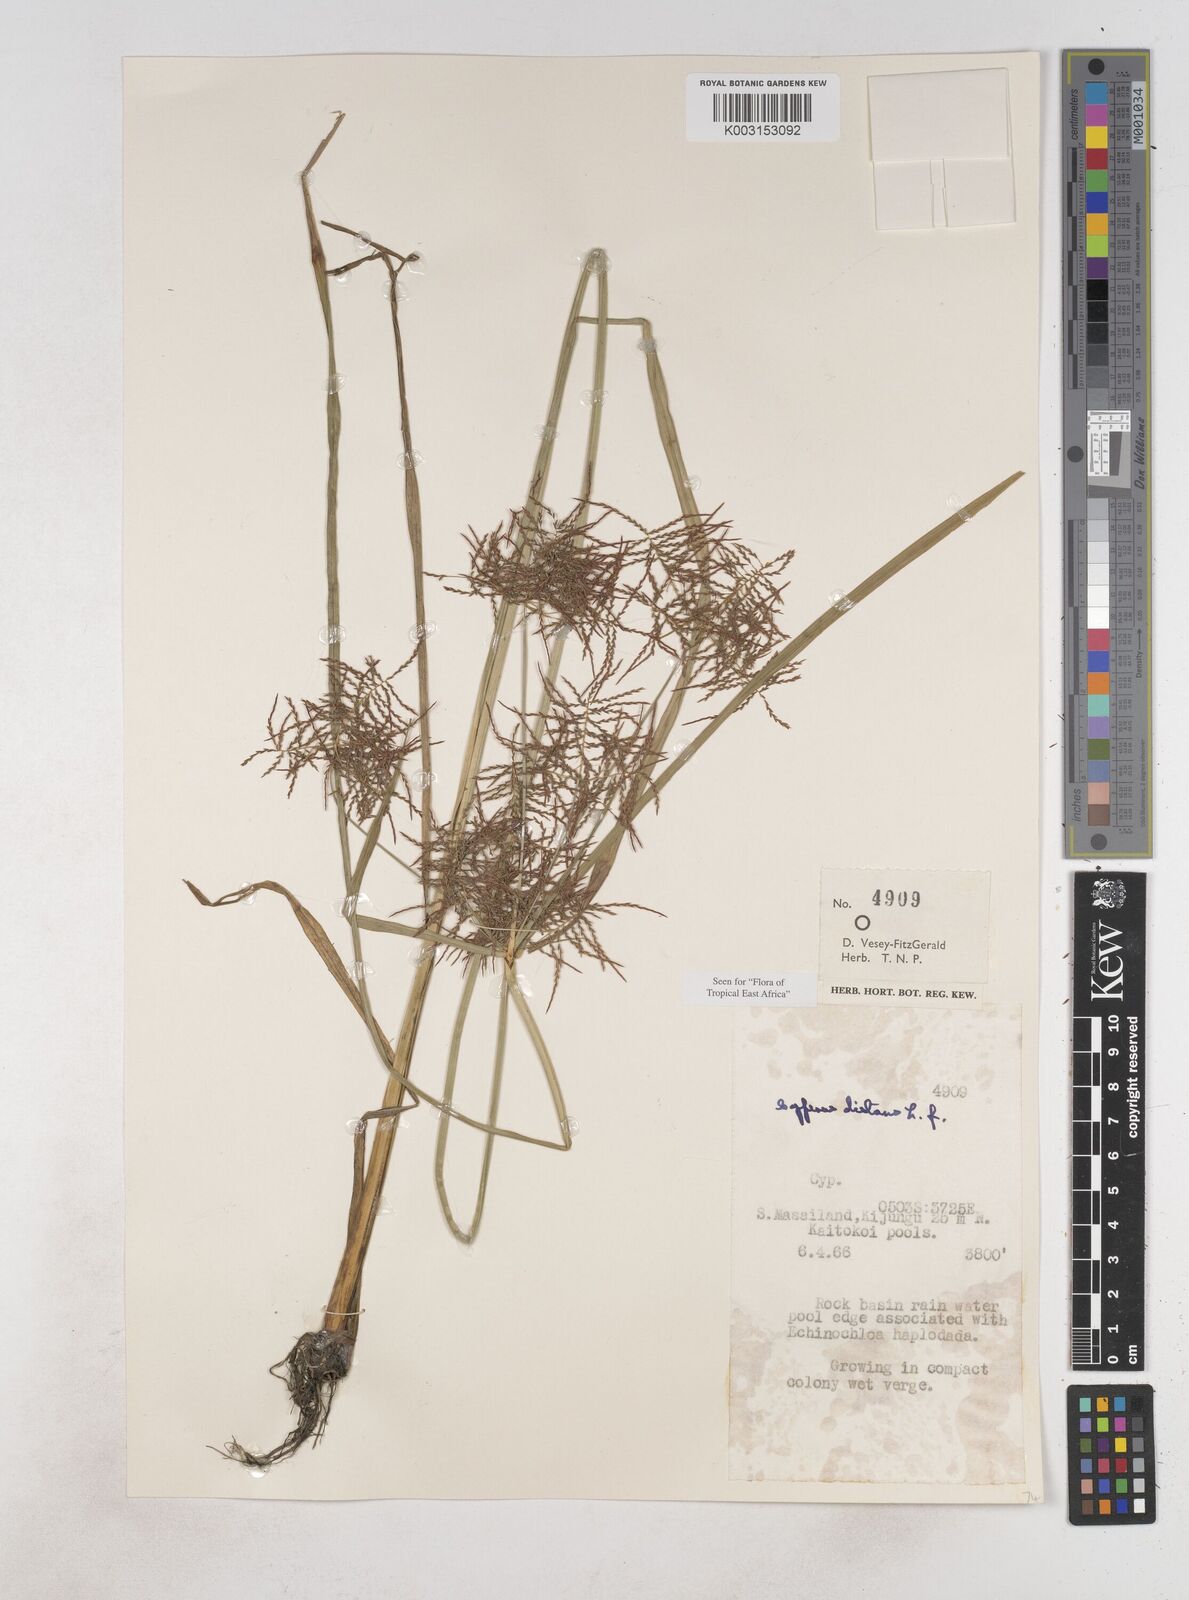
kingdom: Plantae
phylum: Tracheophyta
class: Liliopsida
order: Poales
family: Cyperaceae
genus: Cyperus
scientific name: Cyperus distans
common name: Slender cyperus
